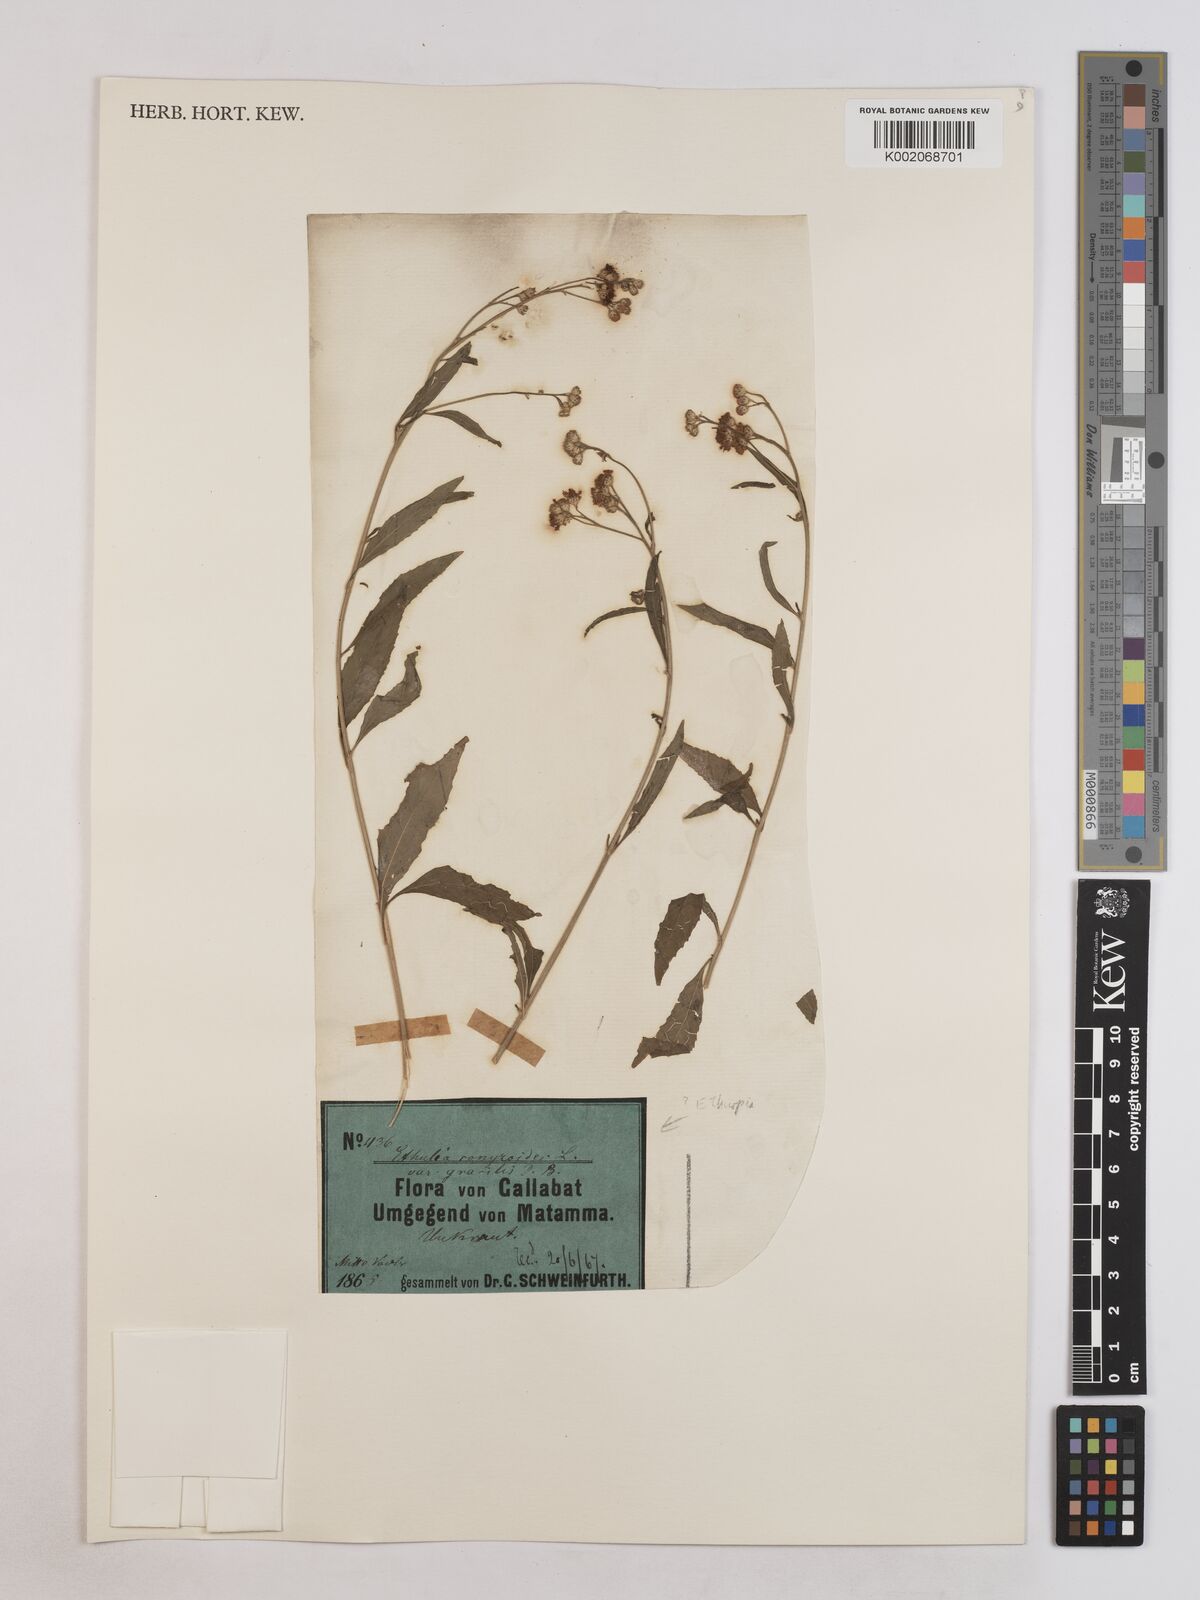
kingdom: Plantae
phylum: Tracheophyta
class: Magnoliopsida
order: Asterales
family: Asteraceae
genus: Ethulia
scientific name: Ethulia gracilis
